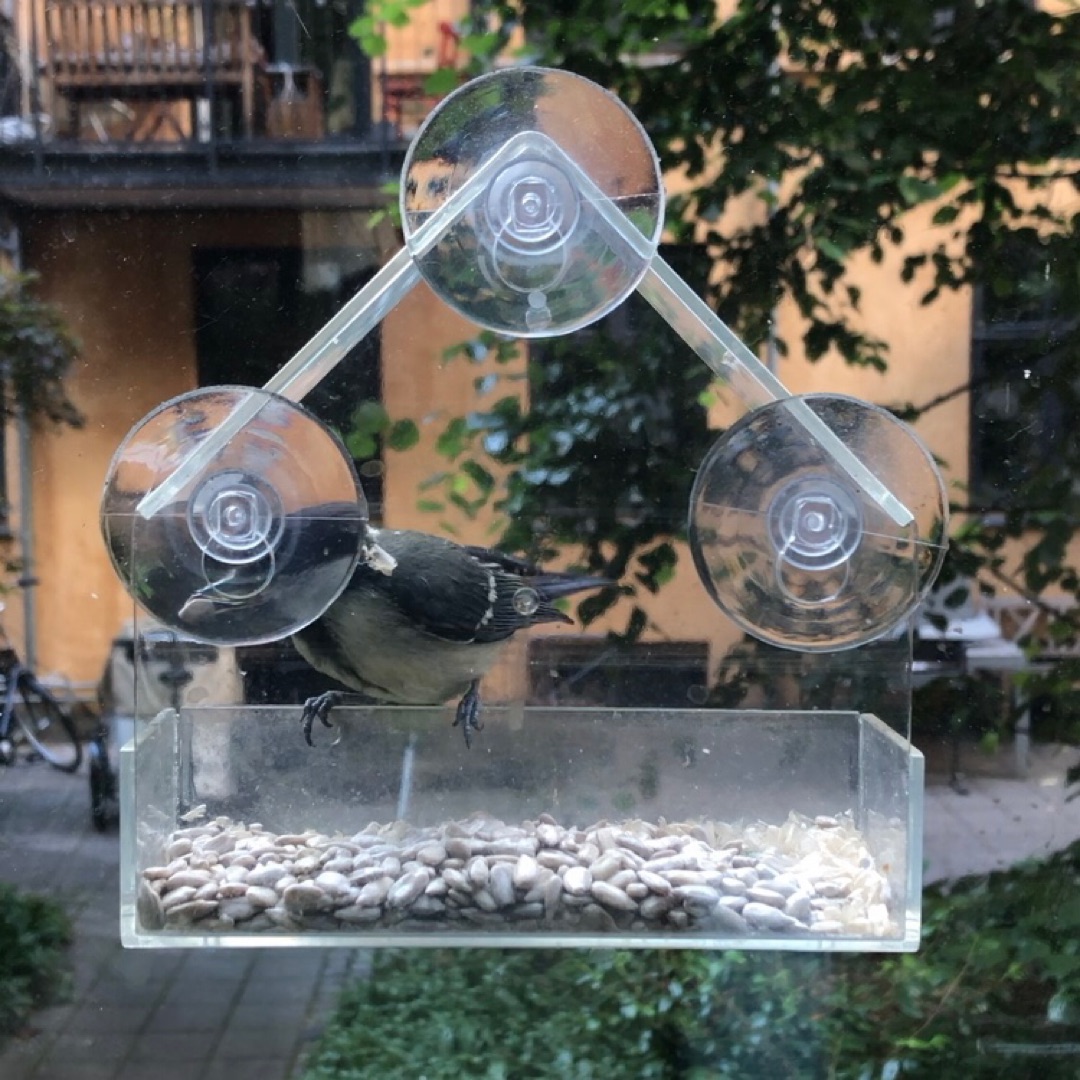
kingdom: Animalia
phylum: Chordata
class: Aves
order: Passeriformes
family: Paridae
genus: Parus
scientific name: Parus major
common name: Musvit
